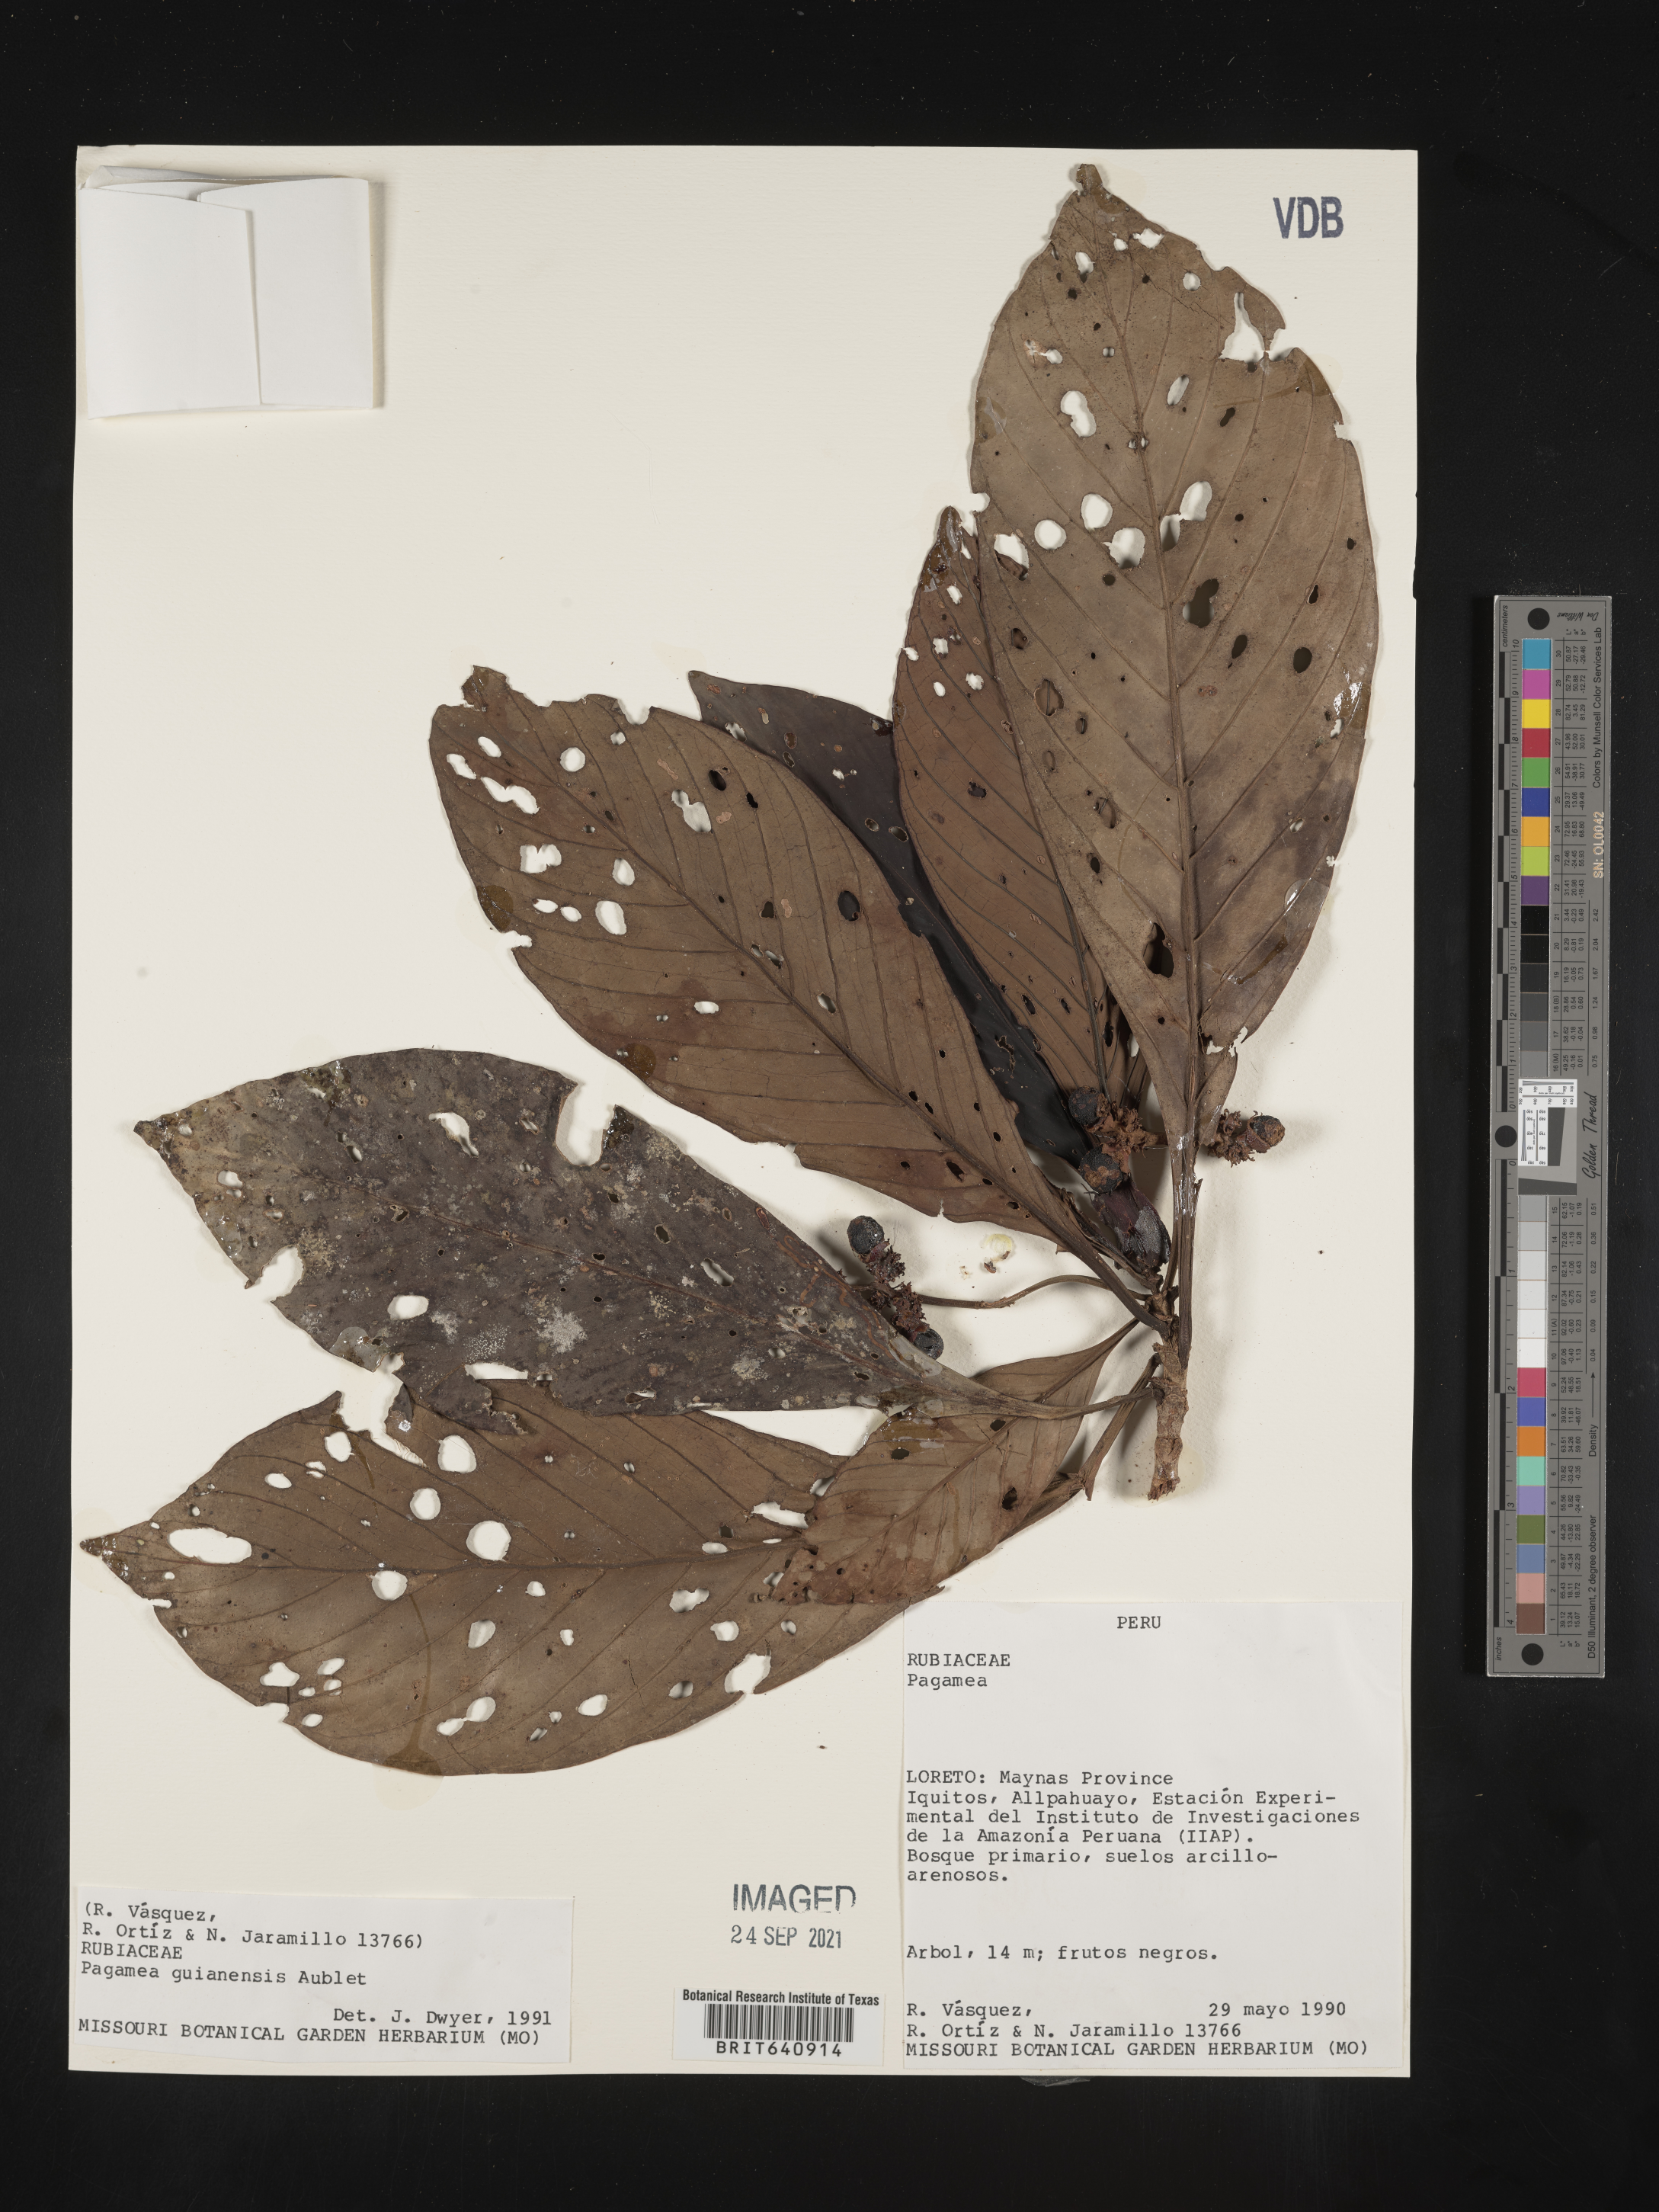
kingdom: Plantae
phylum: Tracheophyta
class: Magnoliopsida
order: Gentianales
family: Rubiaceae
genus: Pagamea
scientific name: Pagamea
